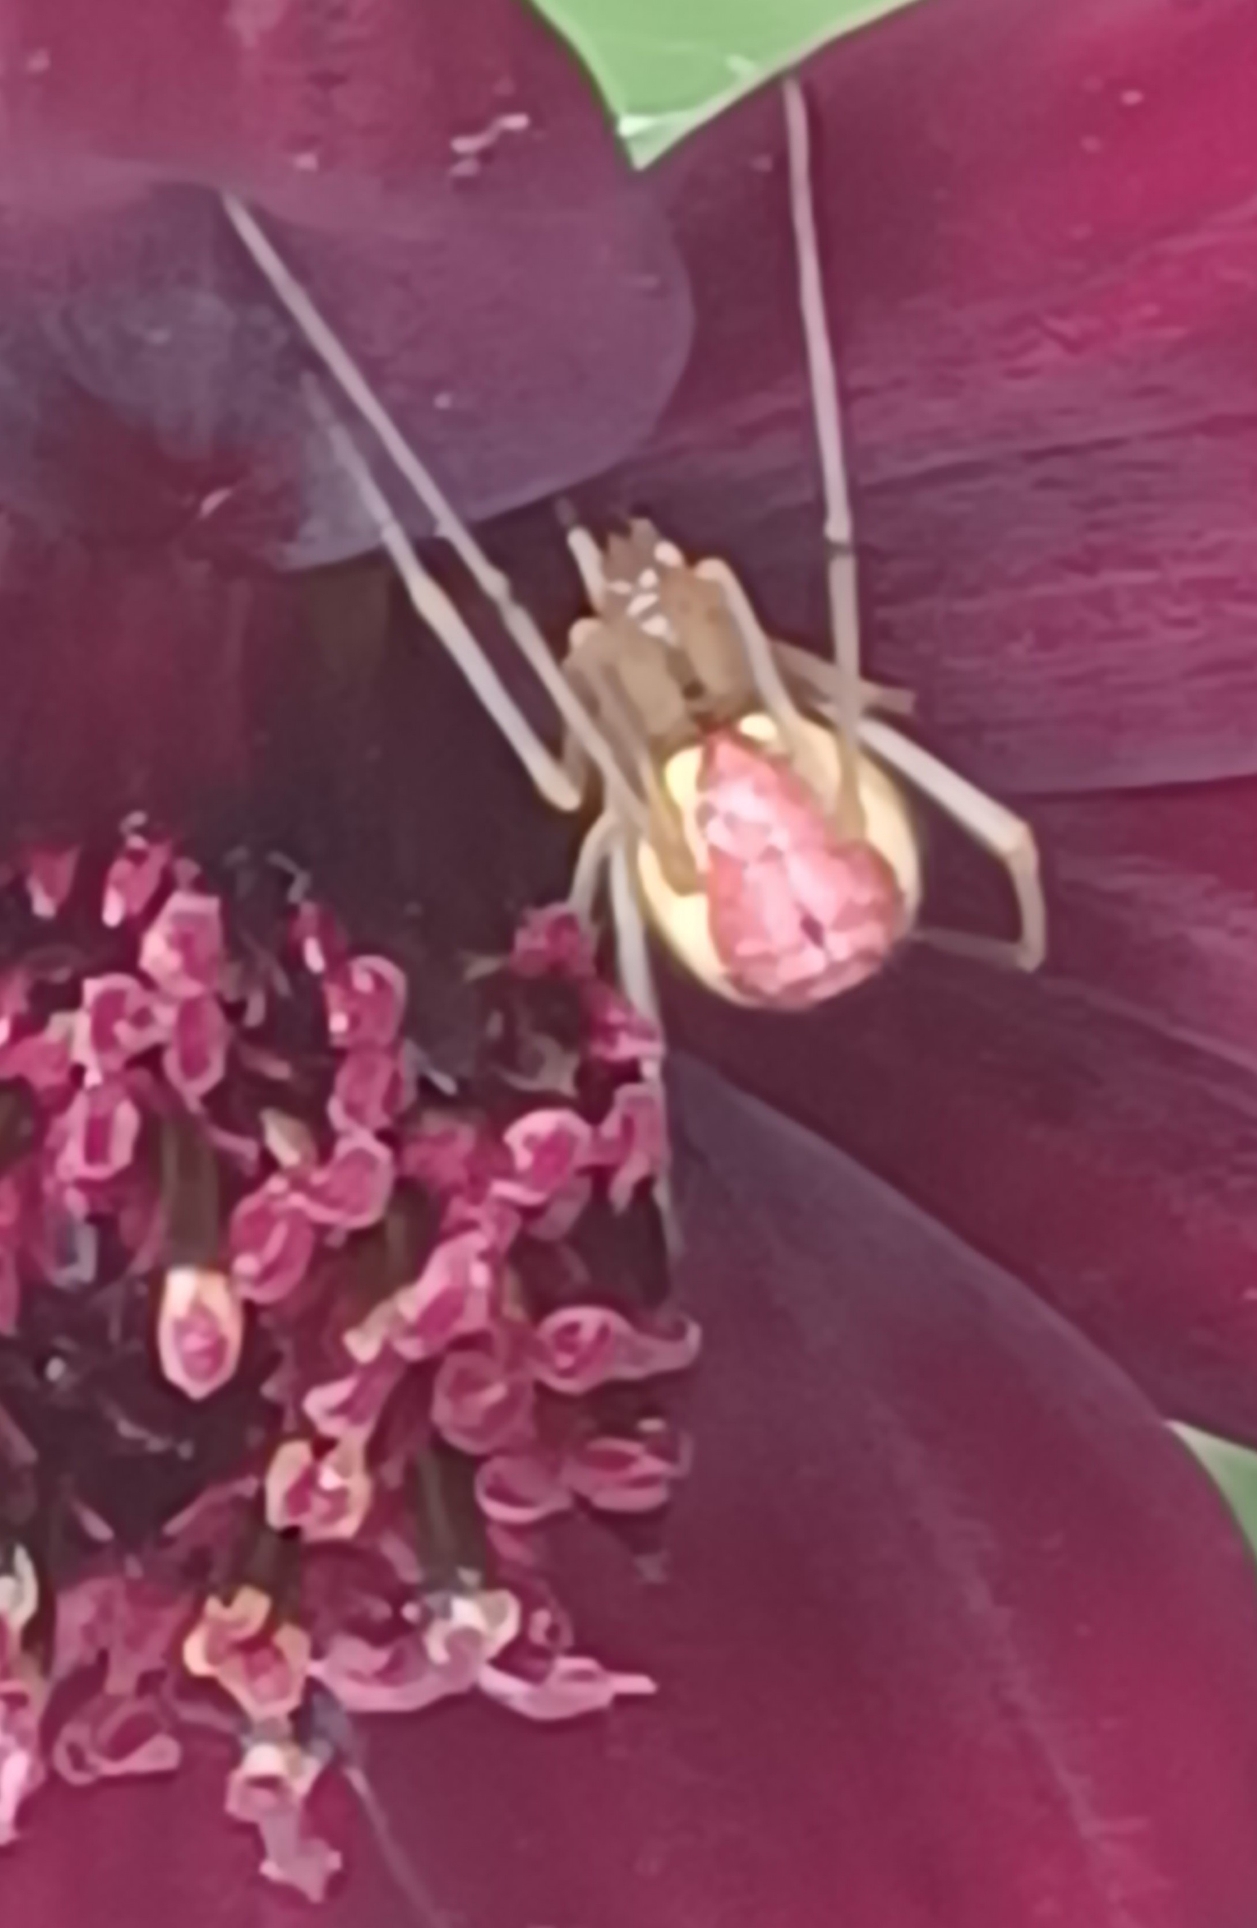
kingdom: Animalia
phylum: Arthropoda
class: Arachnida
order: Araneae
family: Theridiidae
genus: Enoplognatha
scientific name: Enoplognatha ovata
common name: Perleedderkop
